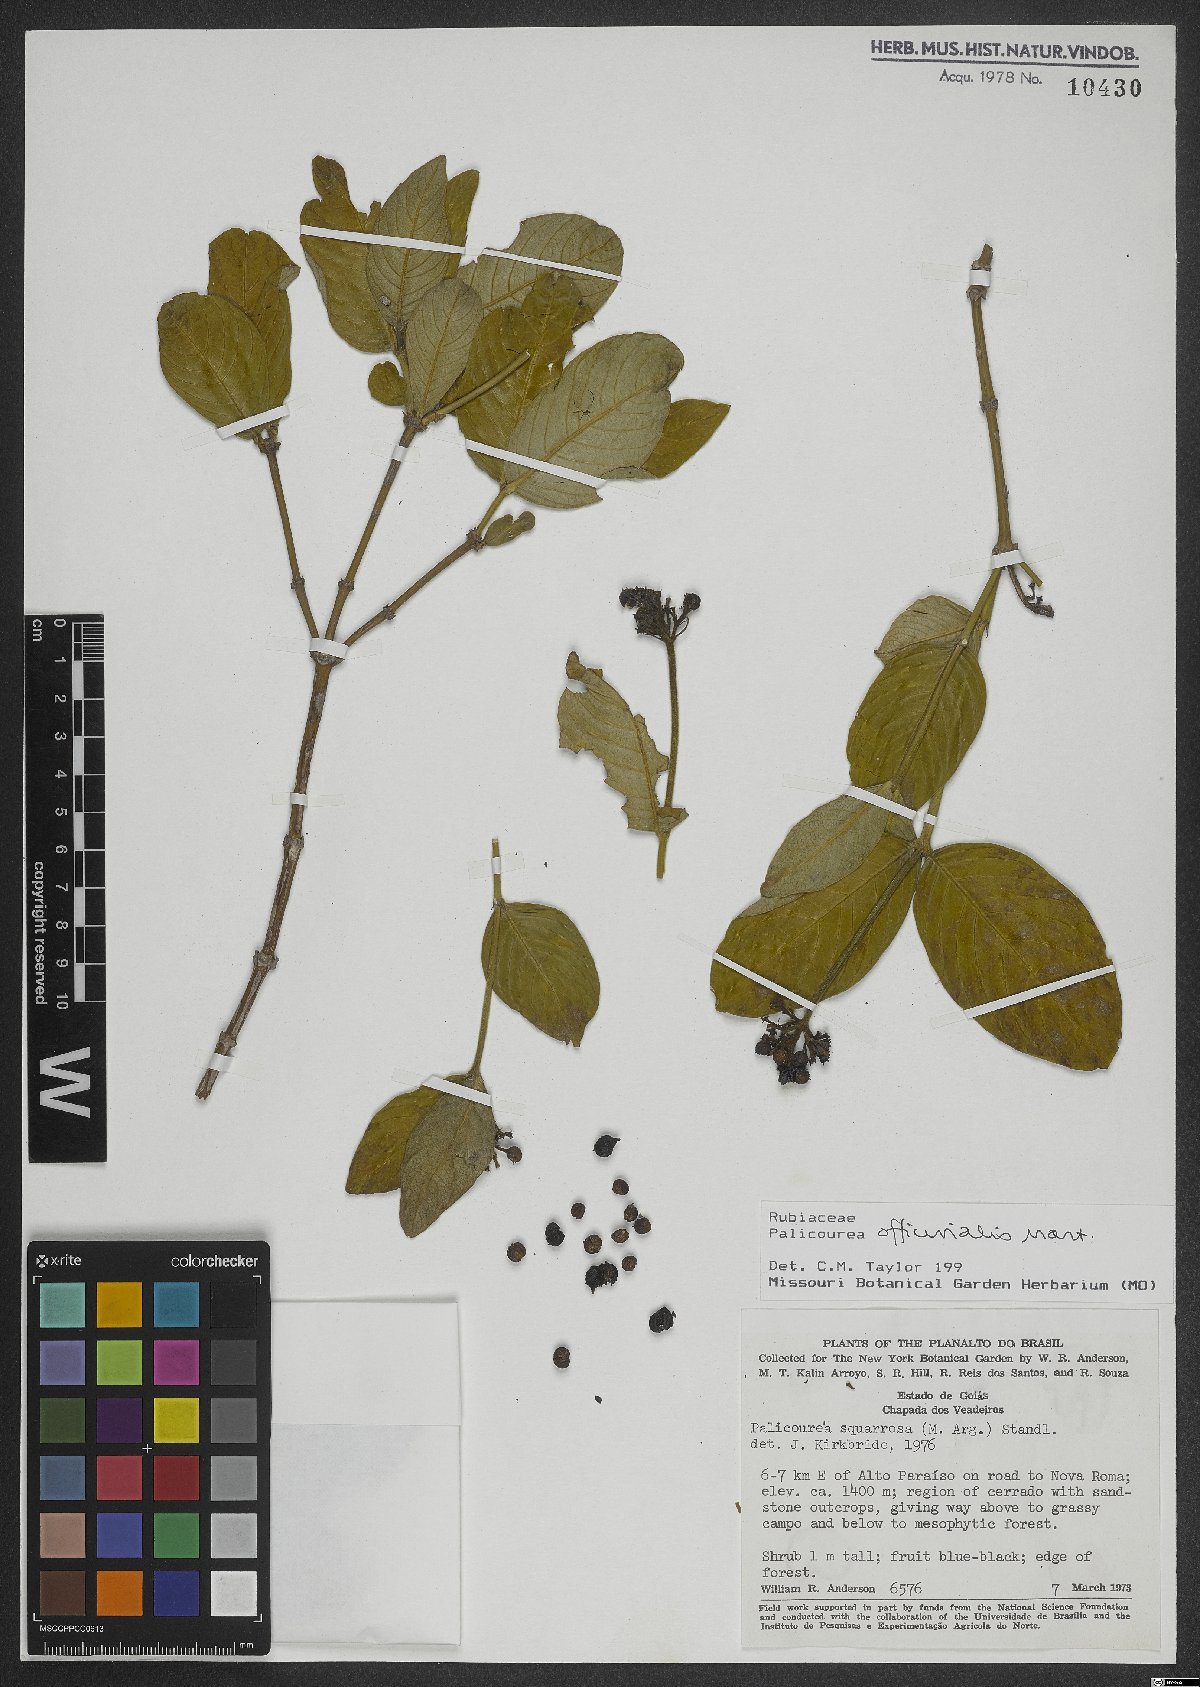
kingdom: Plantae
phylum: Tracheophyta
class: Magnoliopsida
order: Gentianales
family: Rubiaceae
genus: Palicourea
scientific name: Palicourea officinalis
